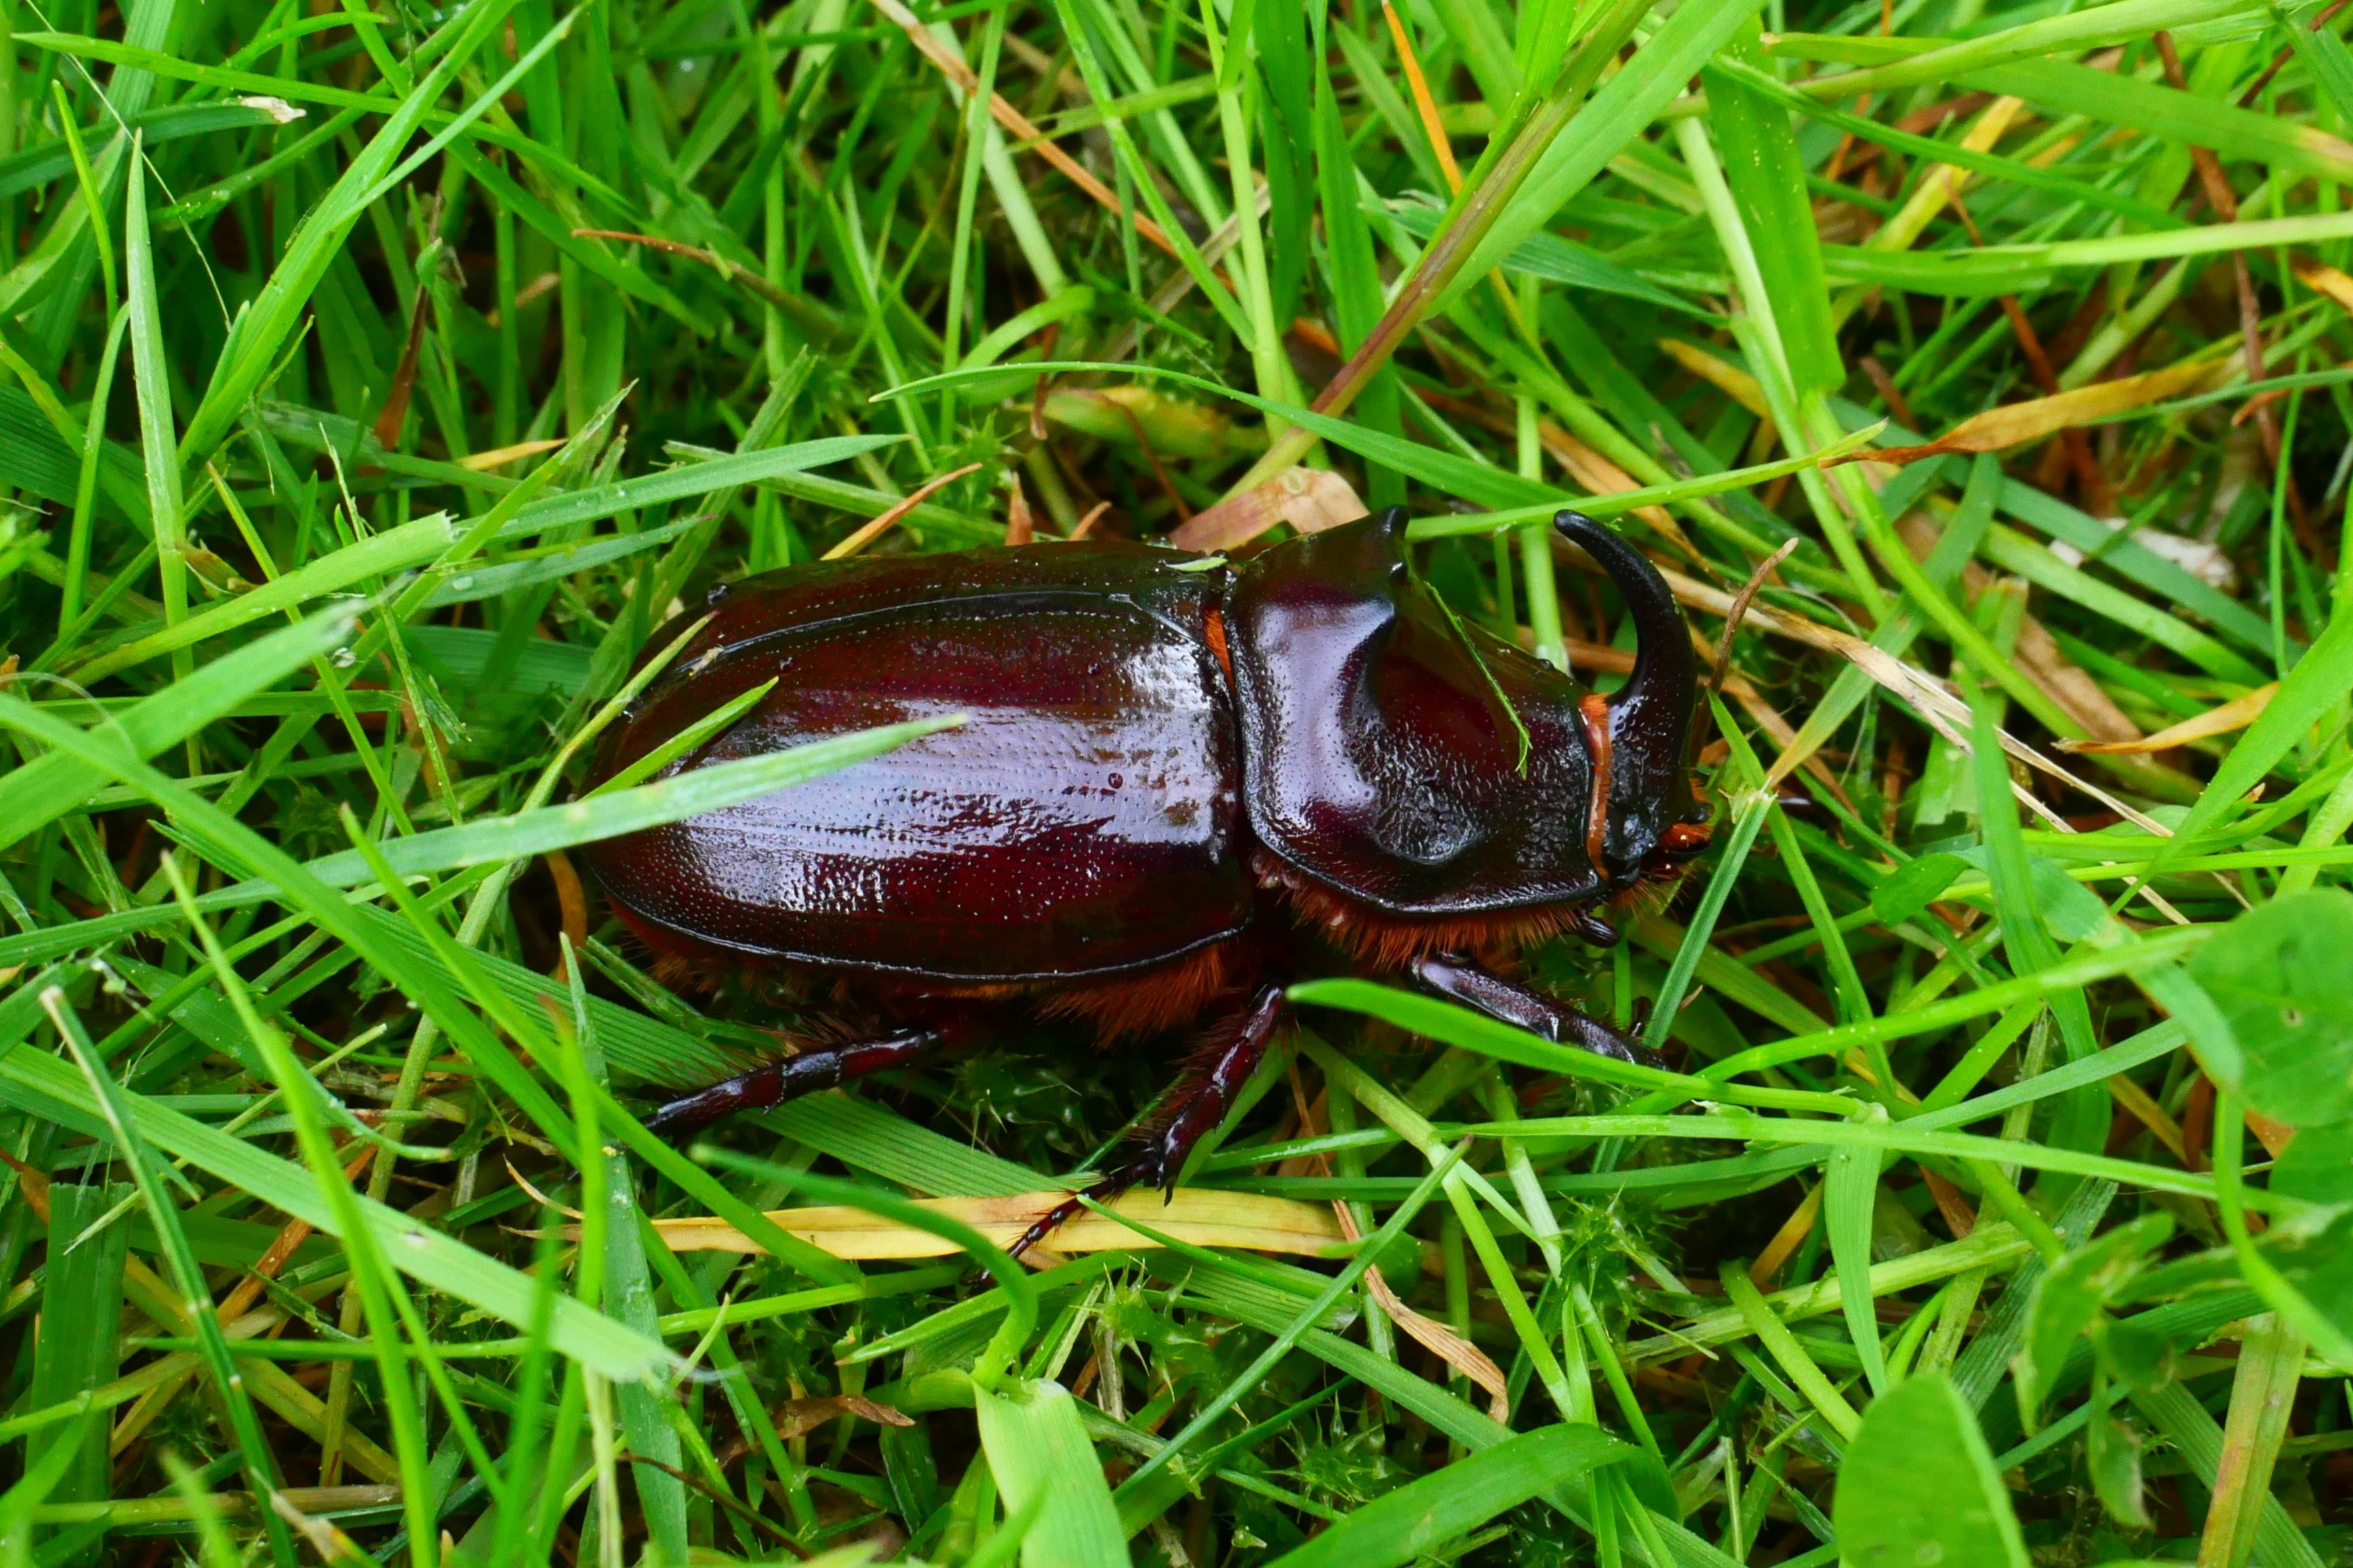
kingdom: Animalia
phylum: Arthropoda
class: Insecta
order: Coleoptera
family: Scarabaeidae
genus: Oryctes
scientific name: Oryctes nasicornis
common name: Næsehornsbille
